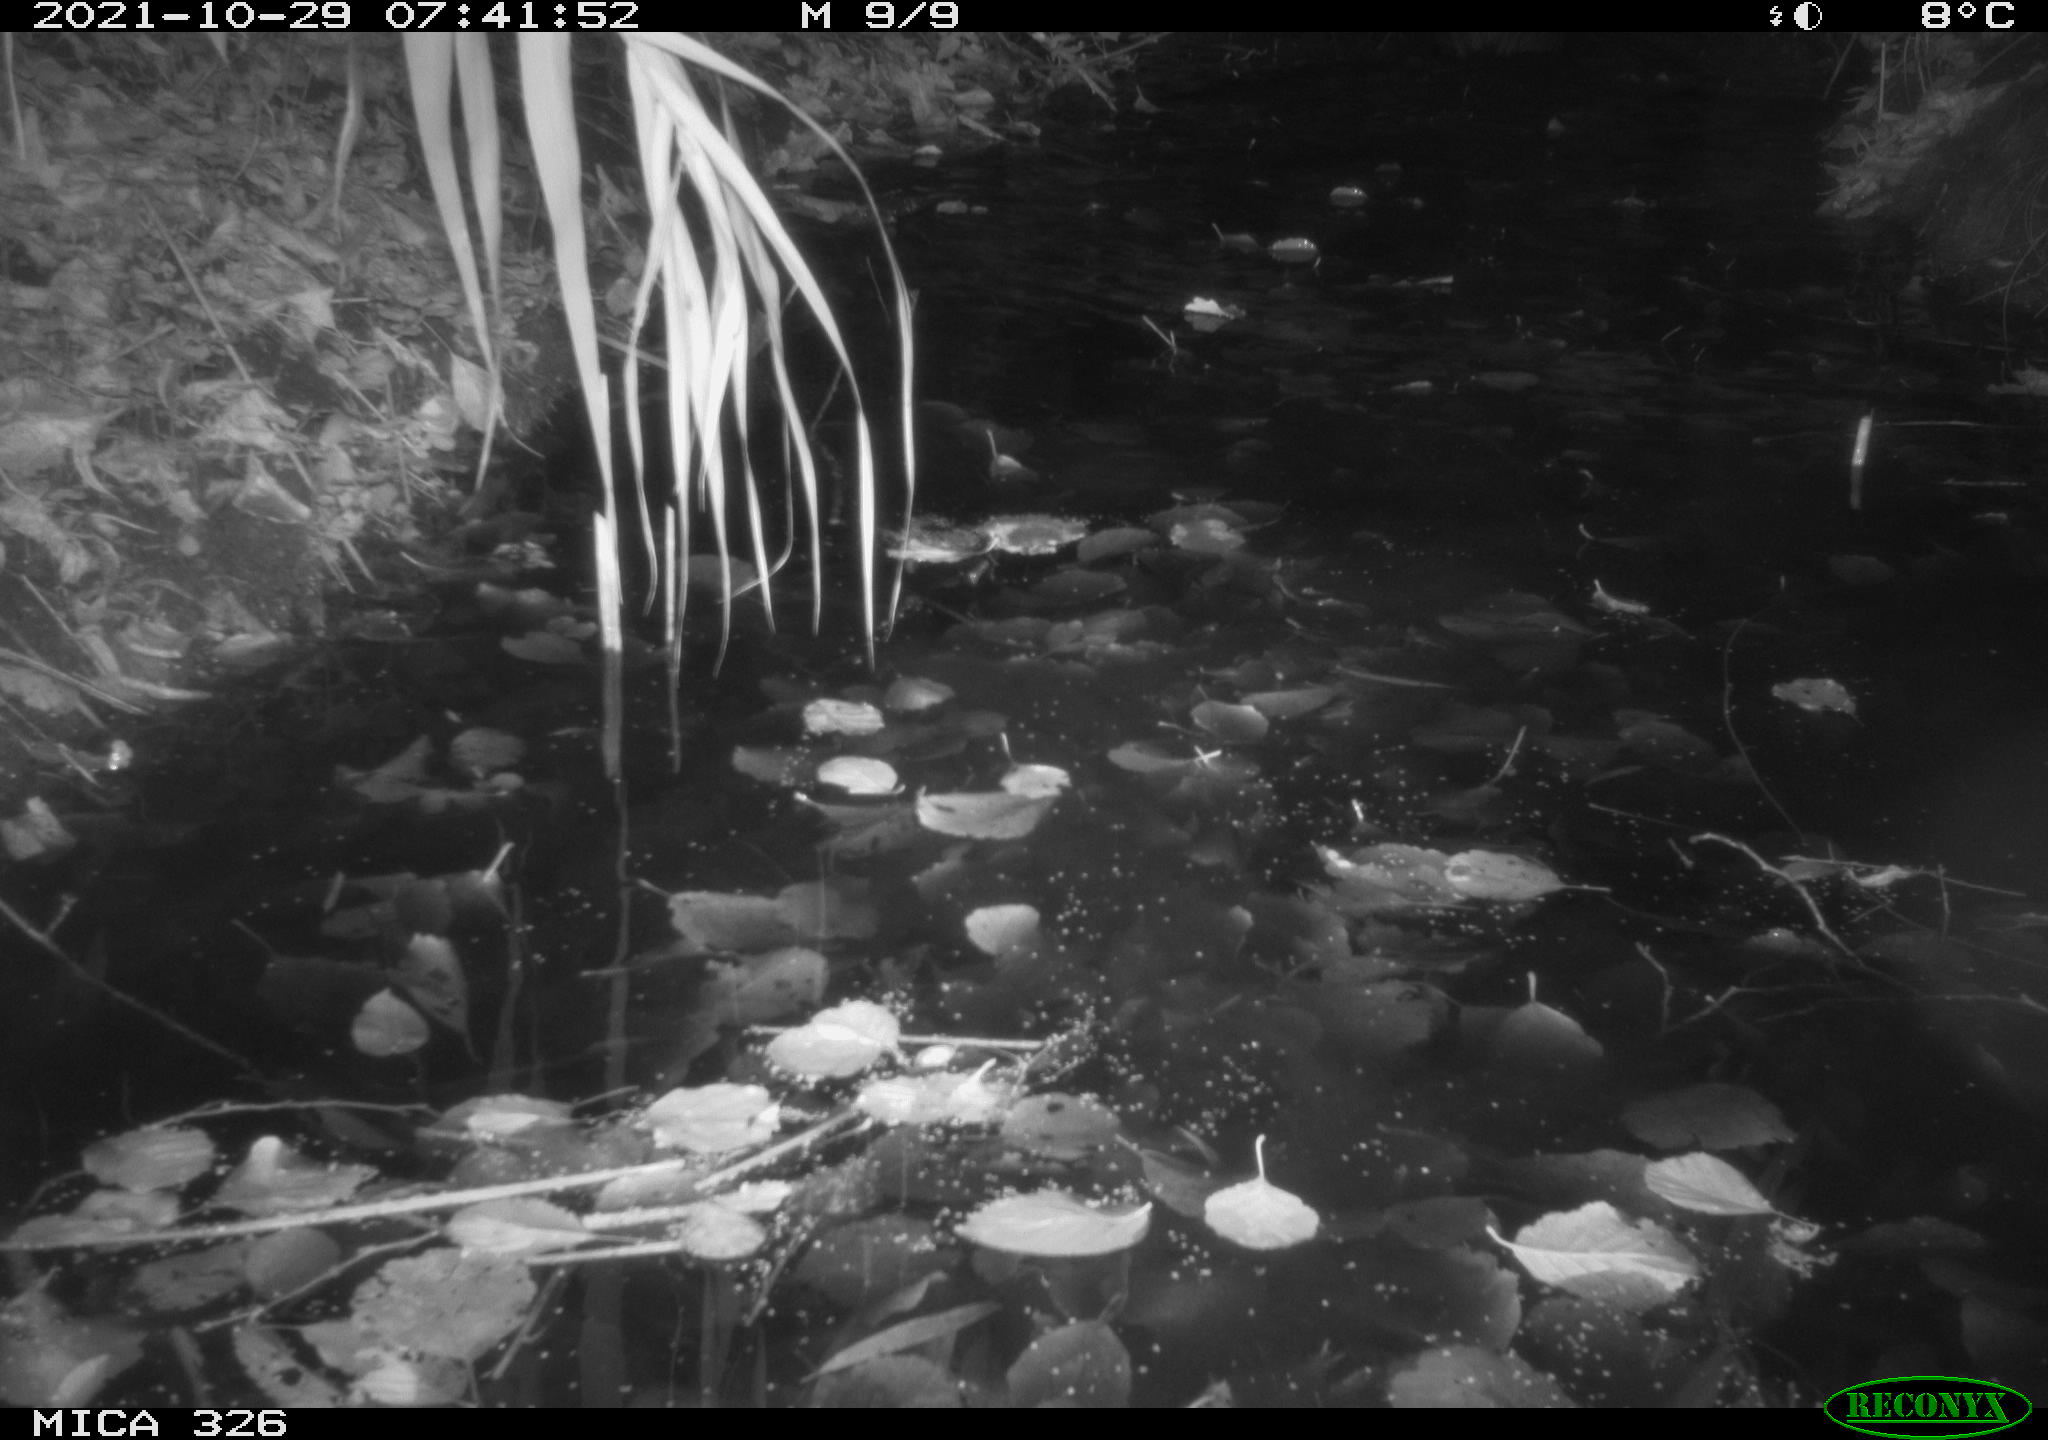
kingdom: Animalia
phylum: Chordata
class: Mammalia
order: Rodentia
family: Myocastoridae
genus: Myocastor
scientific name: Myocastor coypus
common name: Coypu
